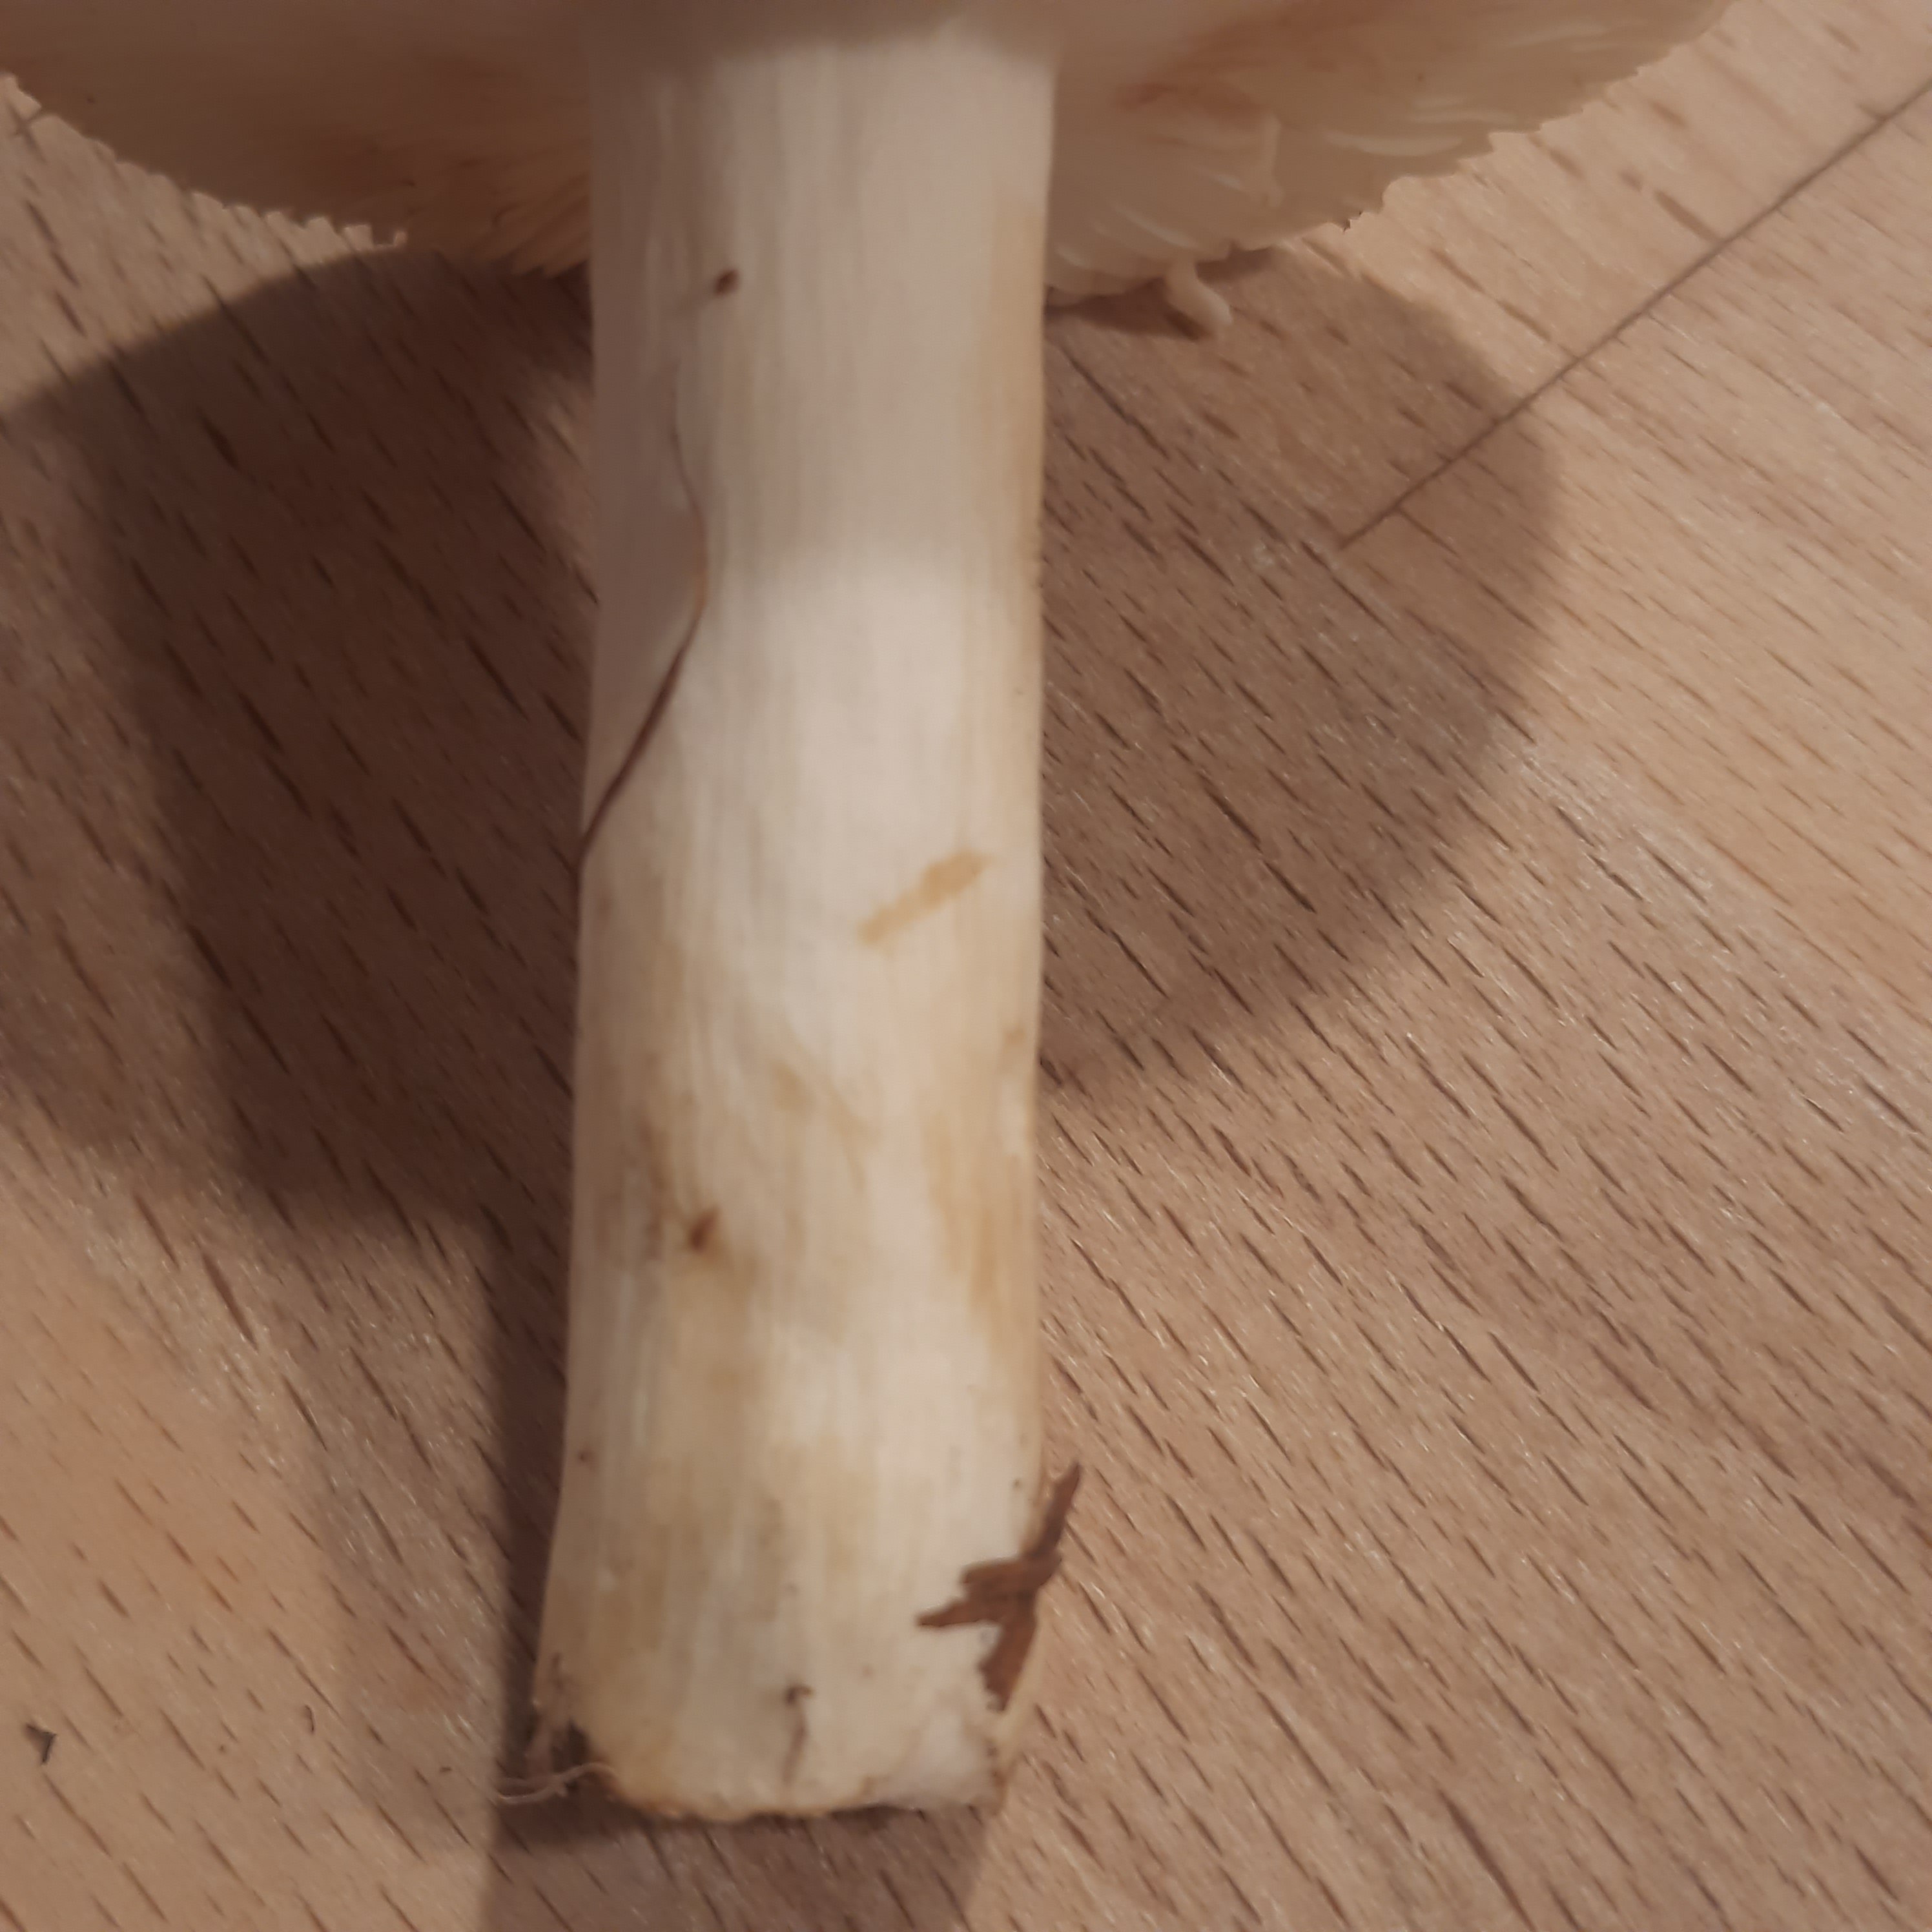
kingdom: Fungi
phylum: Basidiomycota
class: Agaricomycetes
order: Russulales
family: Russulaceae
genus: Russula
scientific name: Russula
